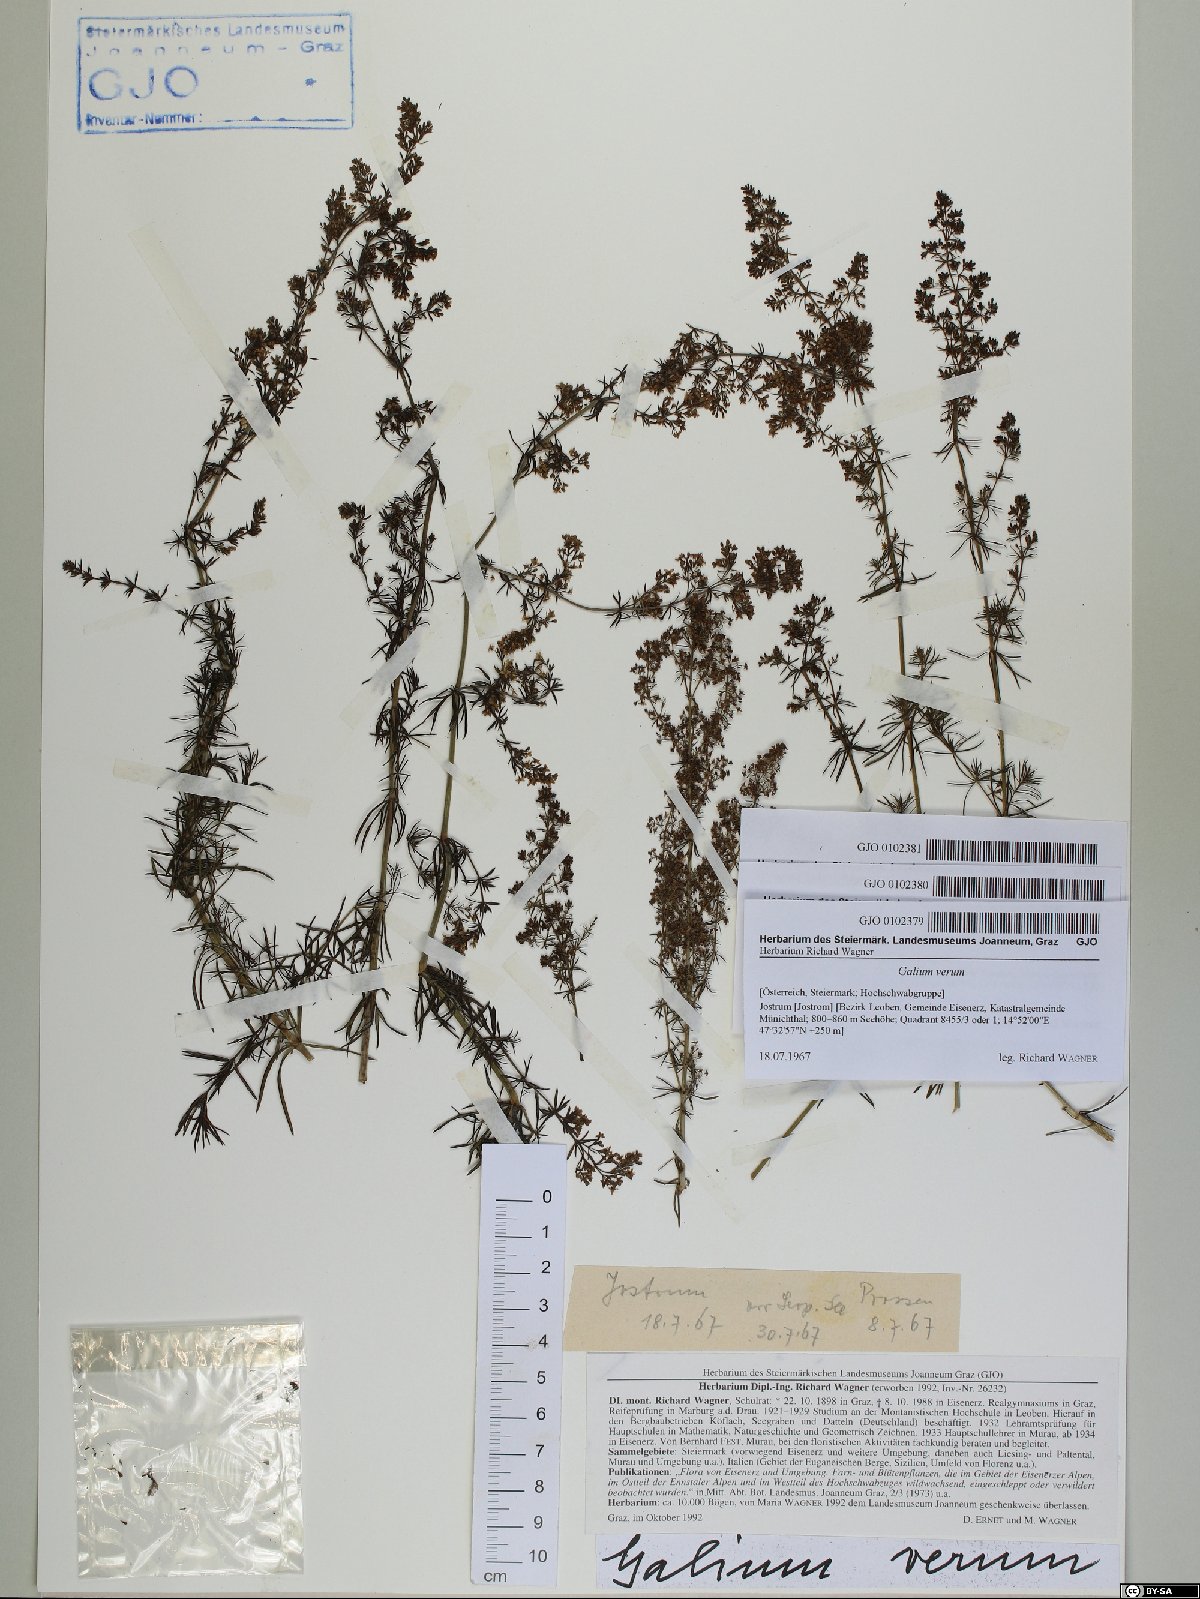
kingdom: Plantae
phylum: Tracheophyta
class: Magnoliopsida
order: Gentianales
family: Rubiaceae
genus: Galium
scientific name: Galium verum
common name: Lady's bedstraw
